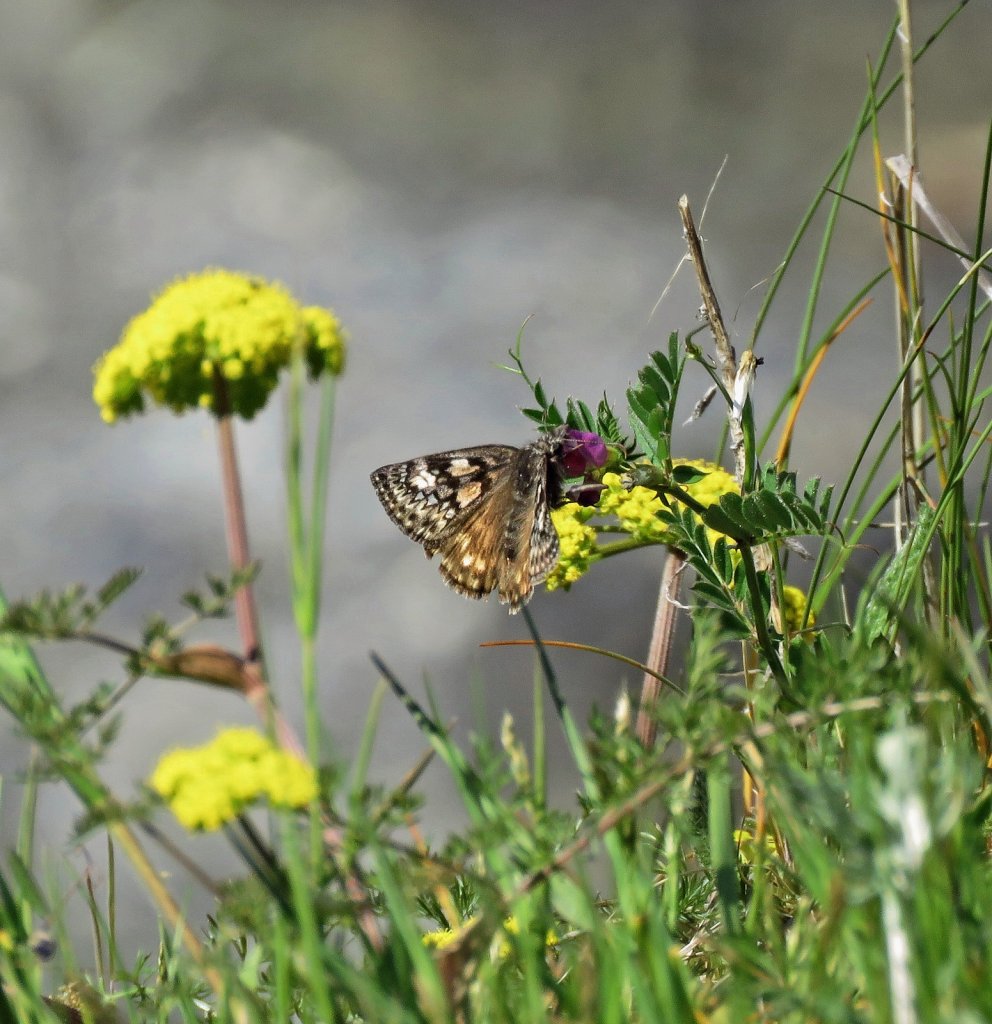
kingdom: Animalia
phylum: Arthropoda
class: Insecta
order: Lepidoptera
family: Hesperiidae
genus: Erynnis
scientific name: Erynnis propertius
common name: Propertius Duskywing
